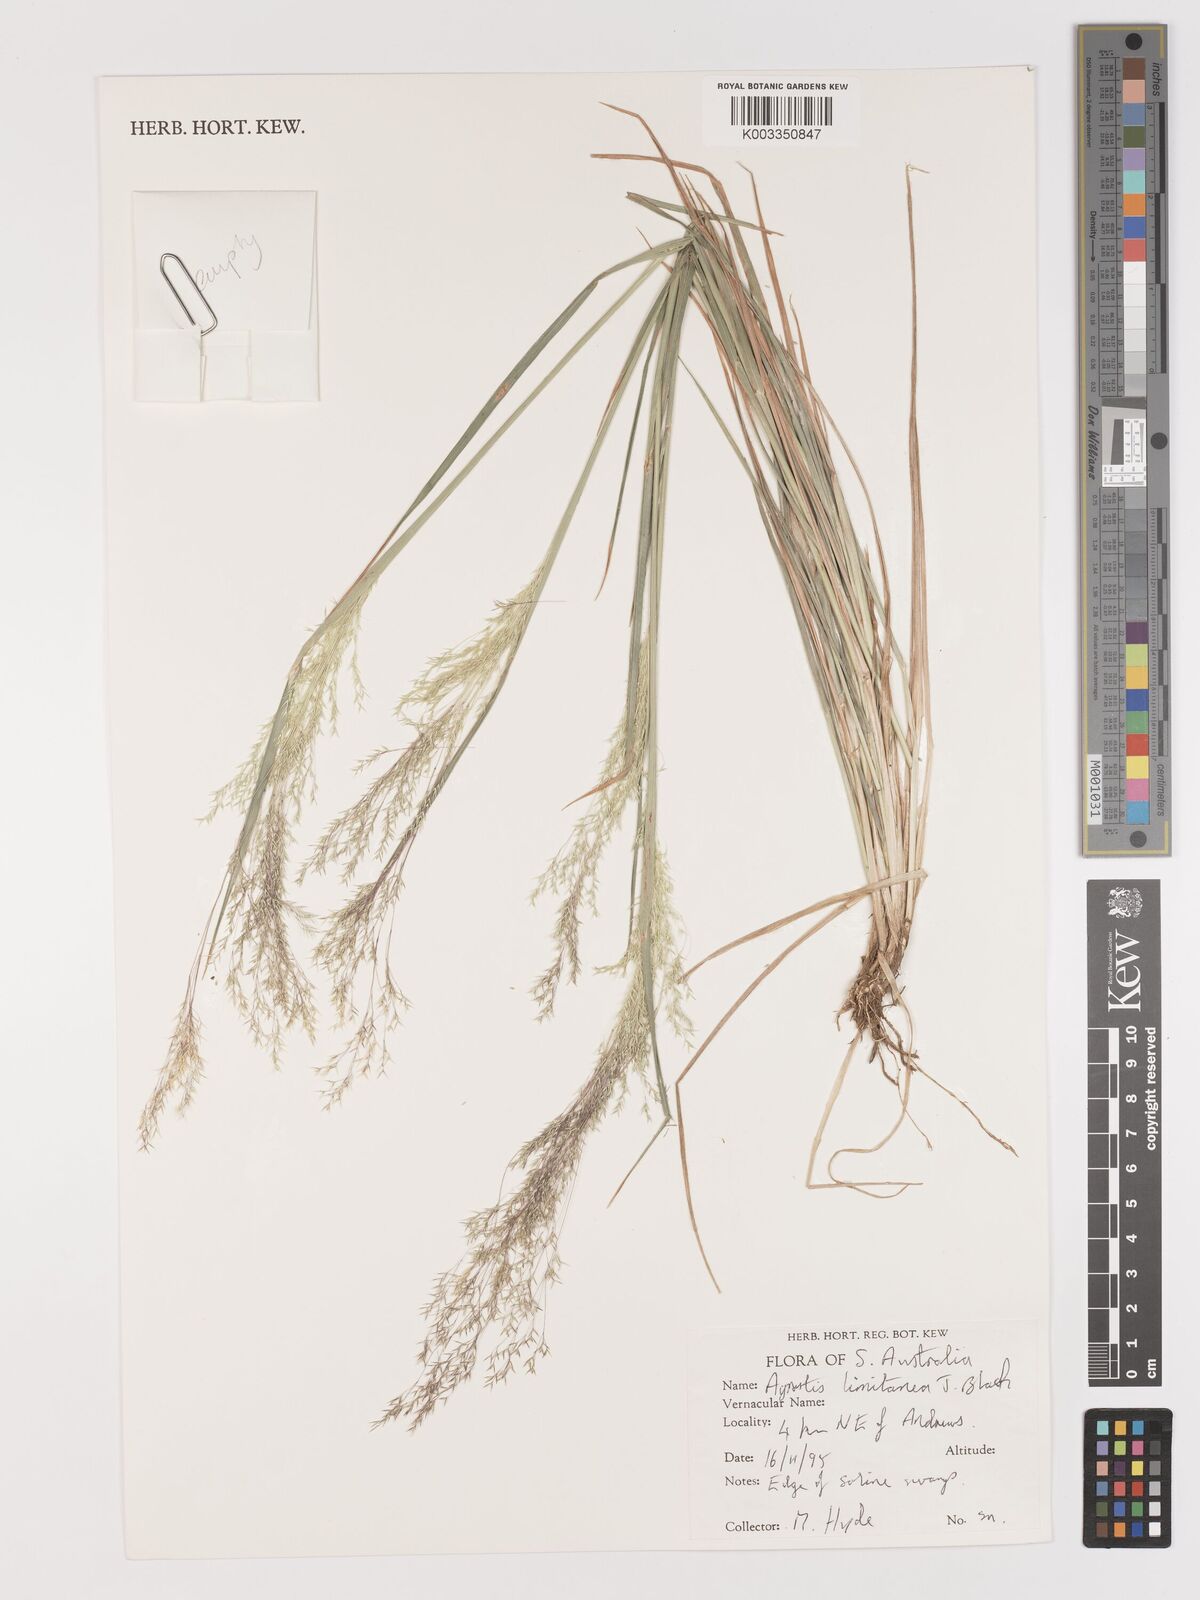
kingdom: Plantae
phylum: Tracheophyta
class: Liliopsida
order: Poales
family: Poaceae
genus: Lachnagrostis
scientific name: Lachnagrostis limitanea
